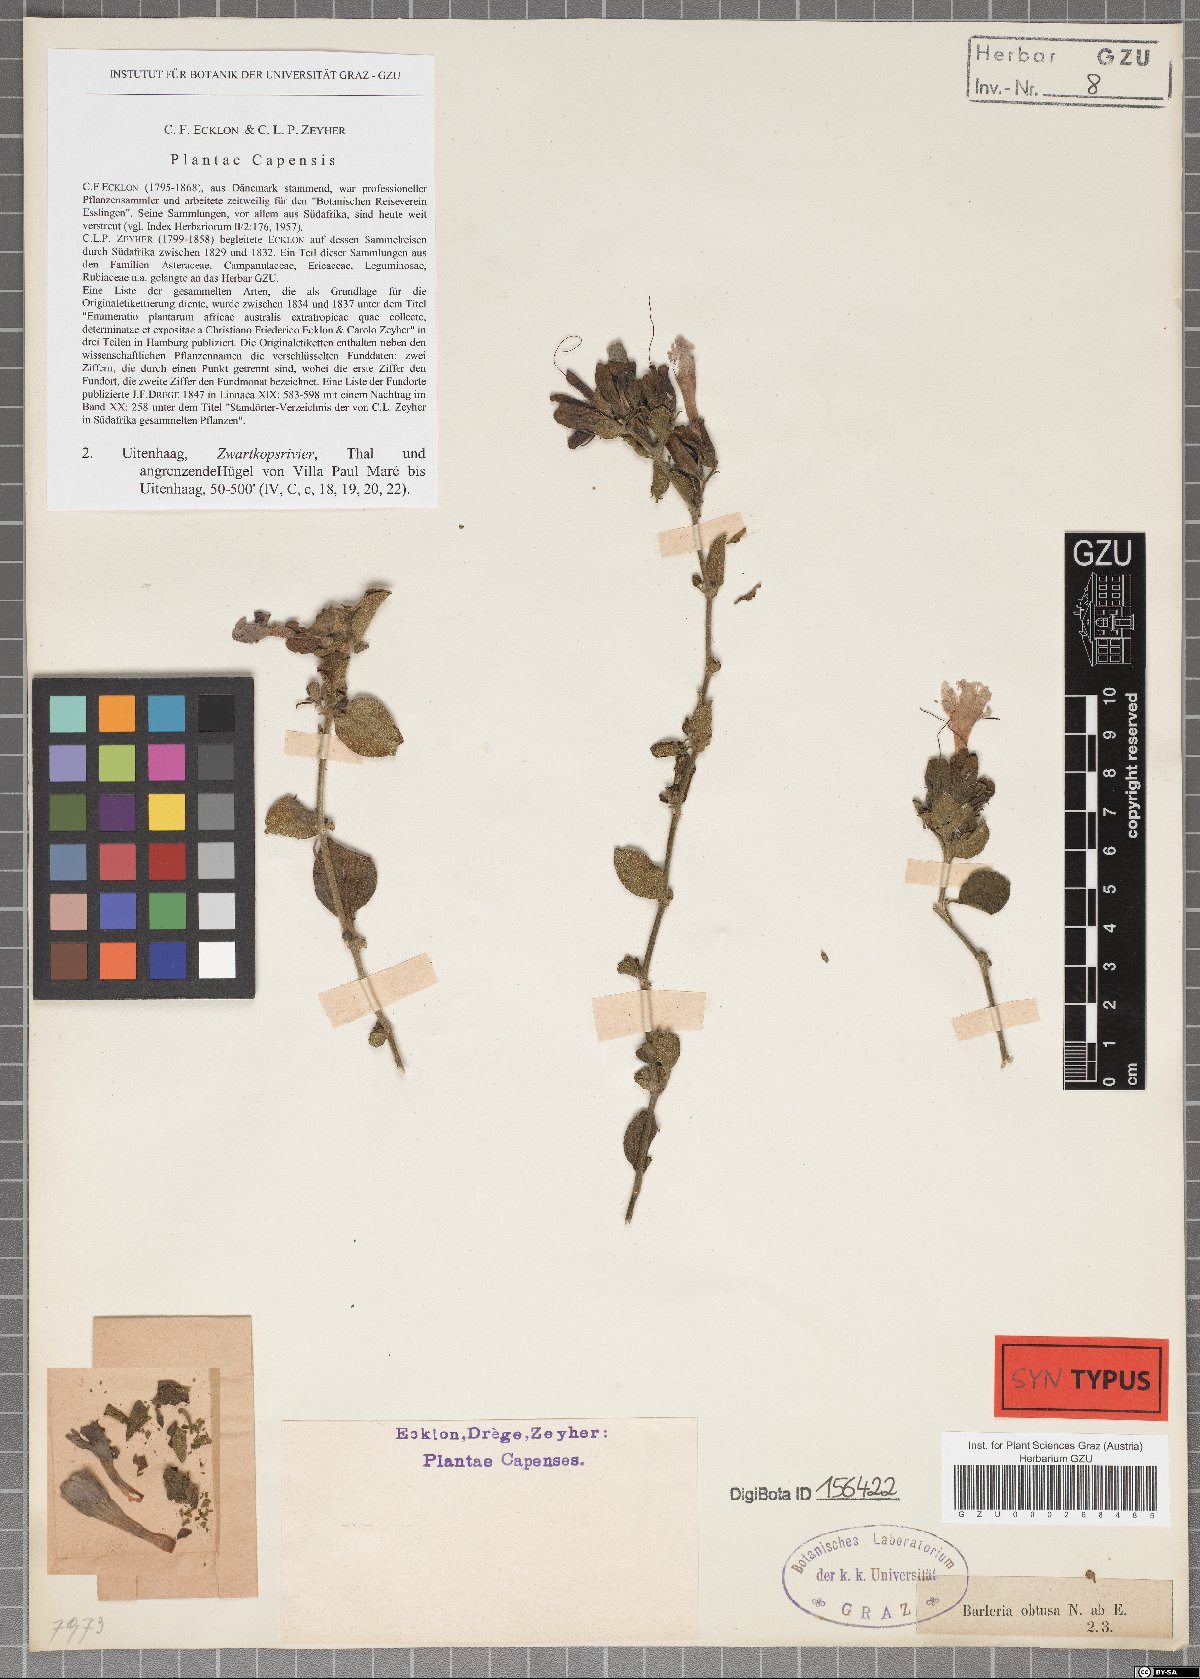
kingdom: Plantae
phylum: Tracheophyta
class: Magnoliopsida
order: Lamiales
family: Acanthaceae
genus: Barleria
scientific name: Barleria obtusa
